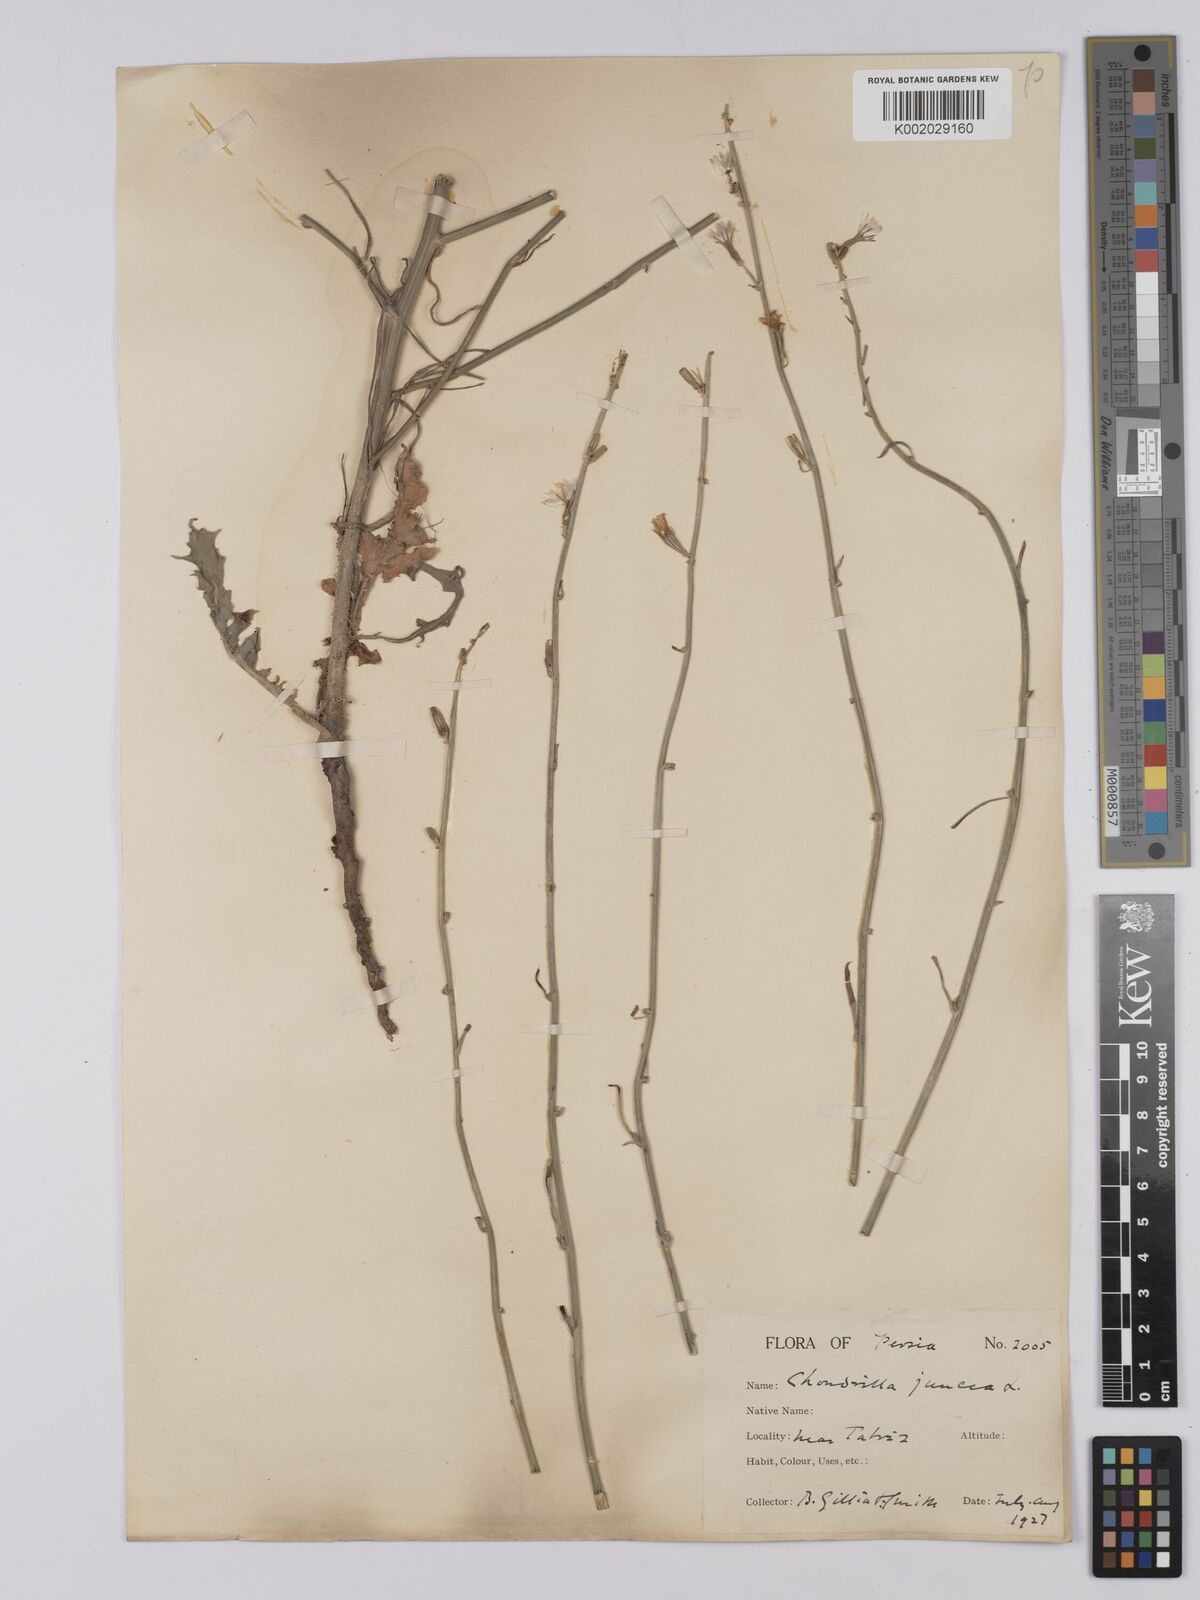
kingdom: Plantae
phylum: Tracheophyta
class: Magnoliopsida
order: Asterales
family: Asteraceae
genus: Chondrilla
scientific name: Chondrilla juncea
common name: Skeleton weed
